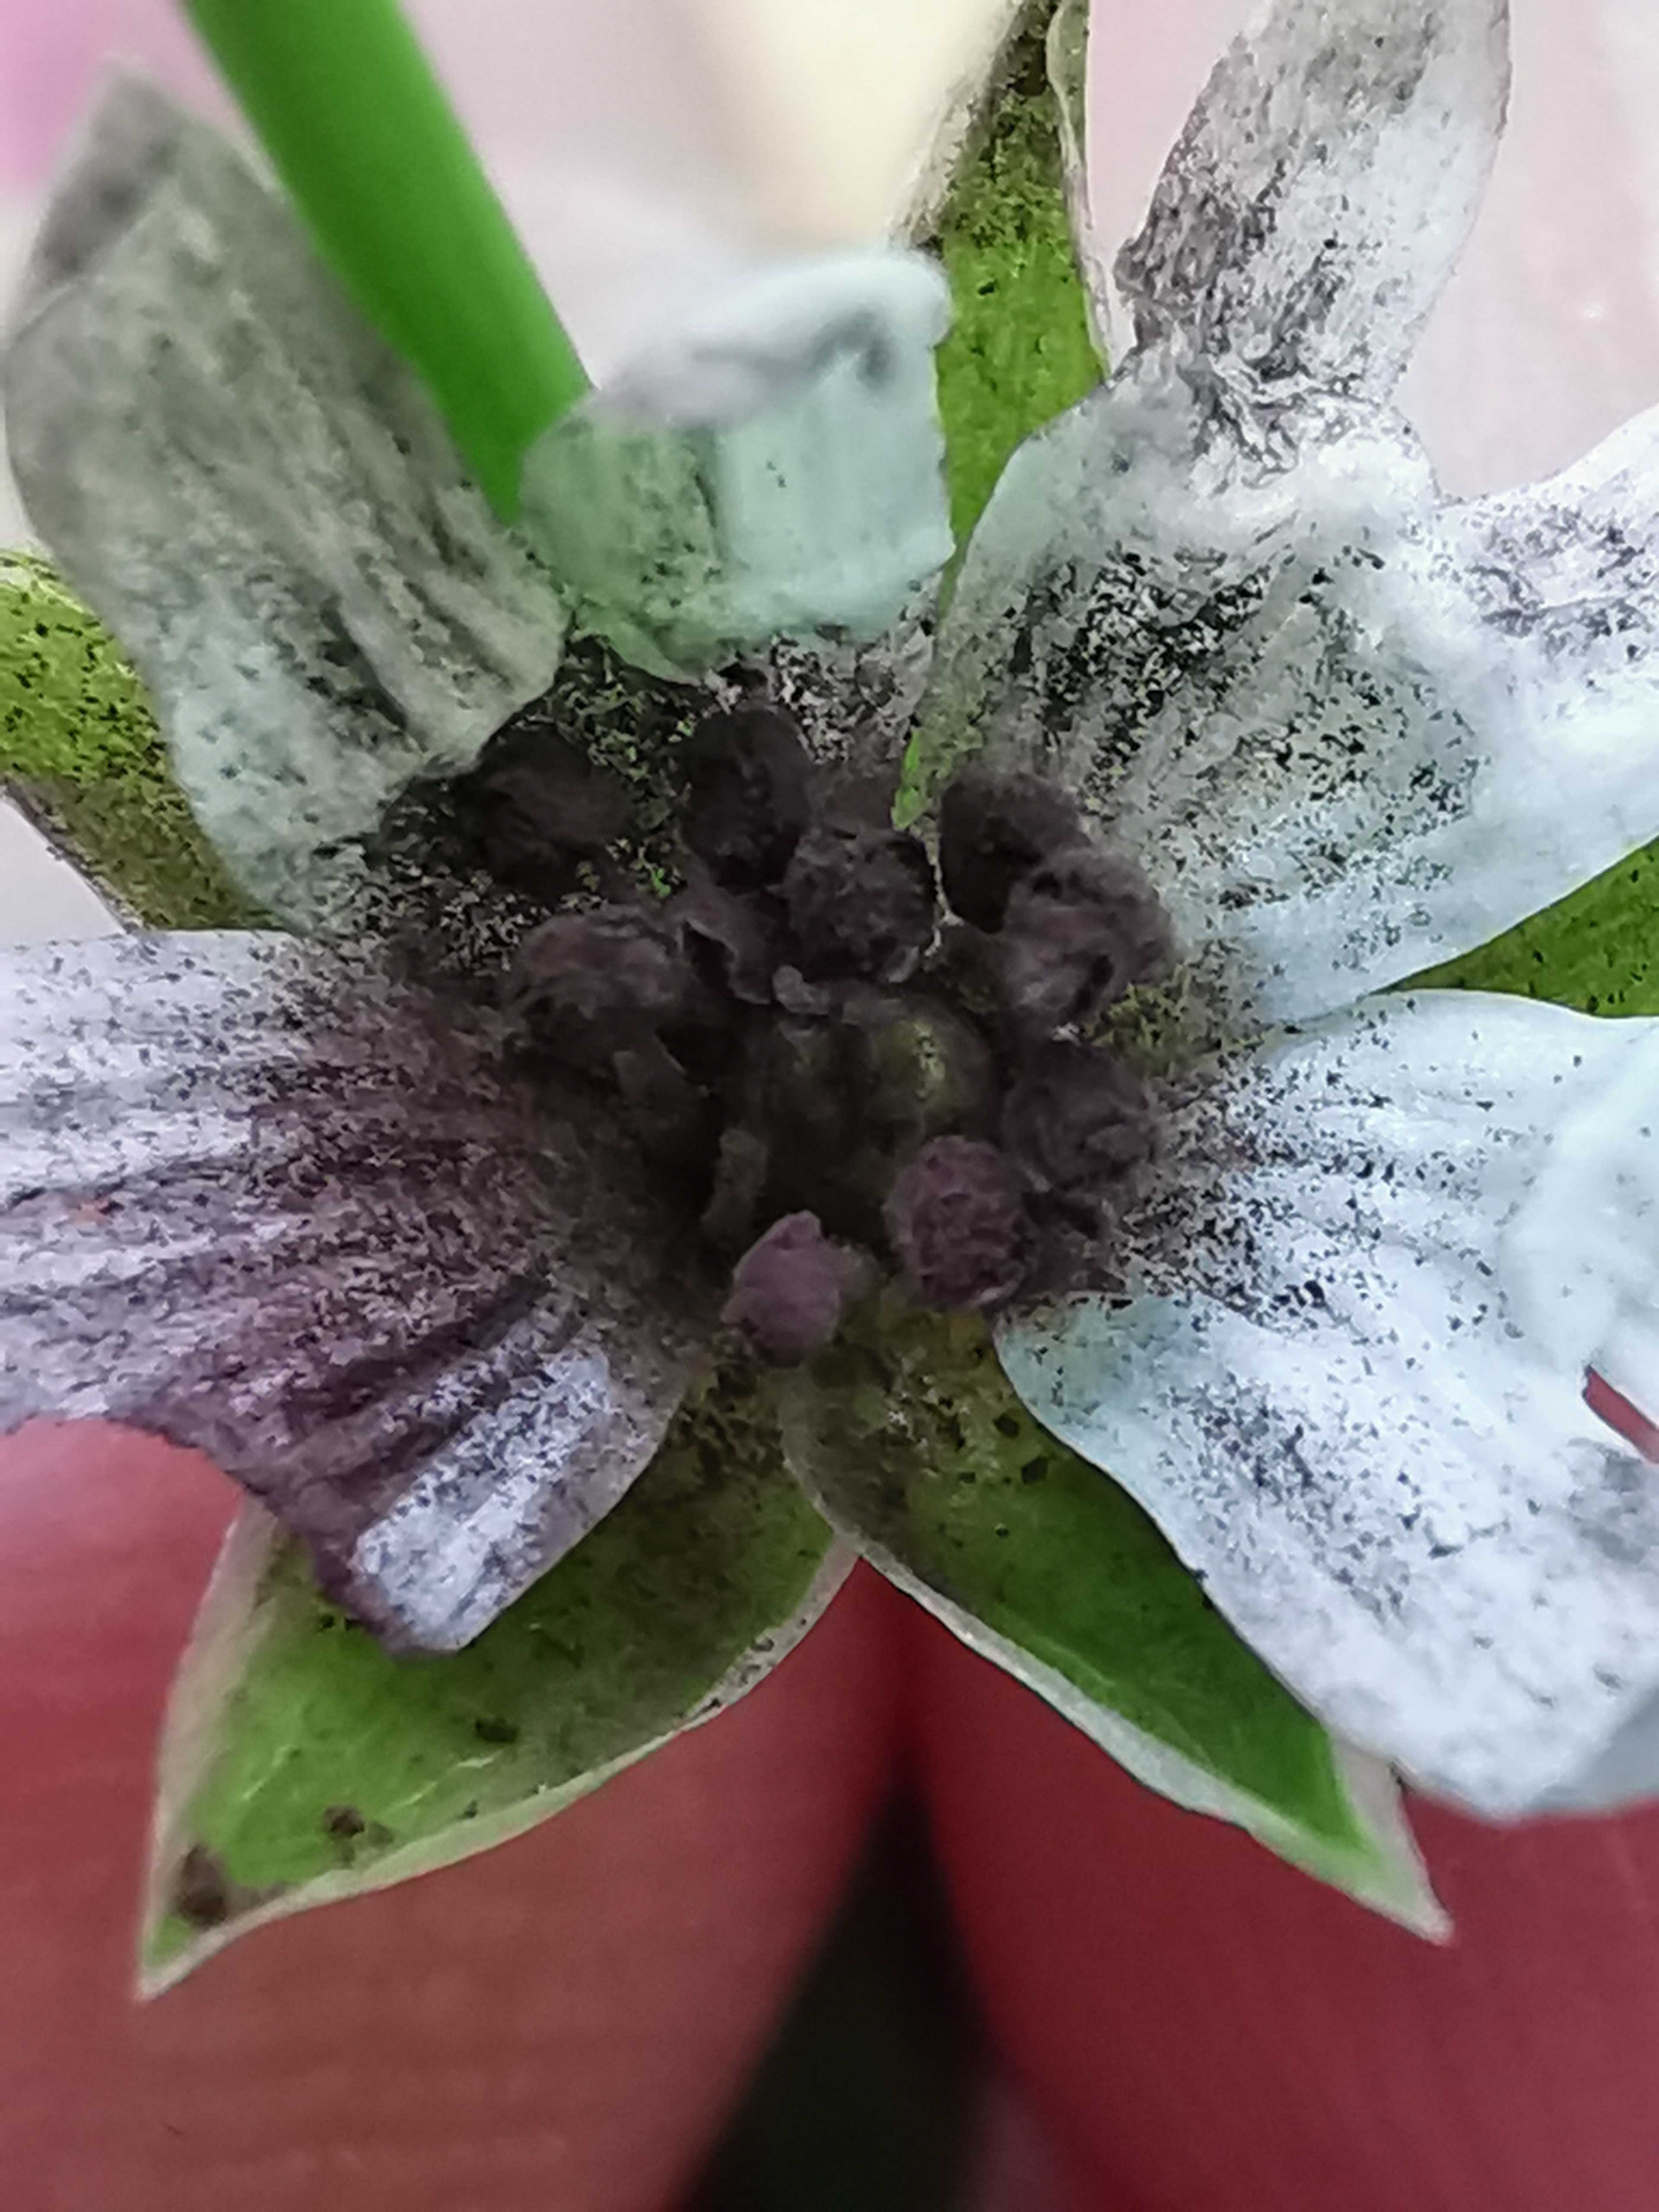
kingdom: Fungi
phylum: Basidiomycota
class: Microbotryomycetes
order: Microbotryales
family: Microbotryaceae
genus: Microbotryum
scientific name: Microbotryum stellariae
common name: fladstjerne-støvbladrust
